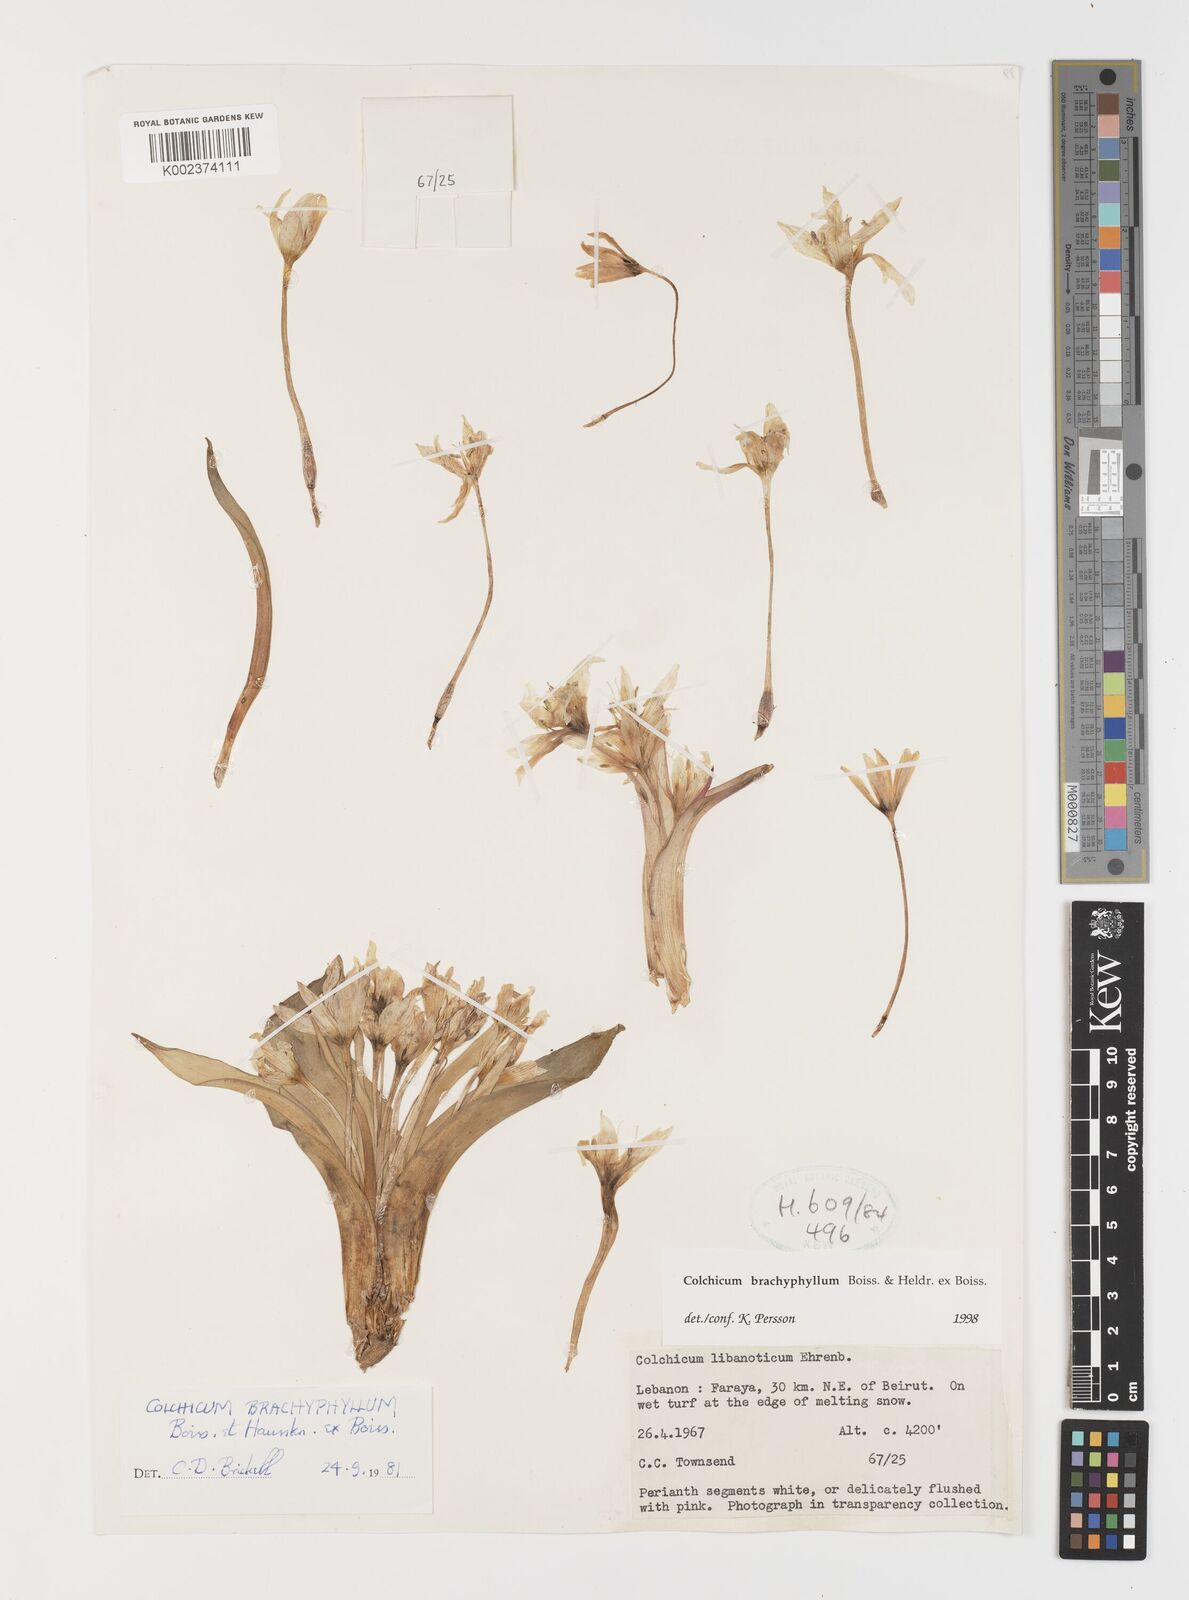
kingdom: Plantae
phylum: Tracheophyta
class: Liliopsida
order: Liliales
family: Colchicaceae
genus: Colchicum
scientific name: Colchicum szovitsii
